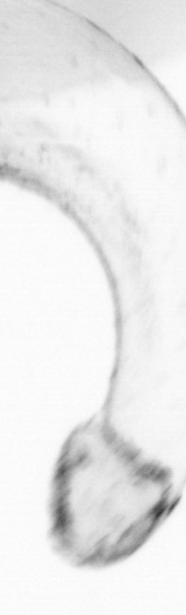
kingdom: Animalia
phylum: Chaetognatha
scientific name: Chaetognatha
